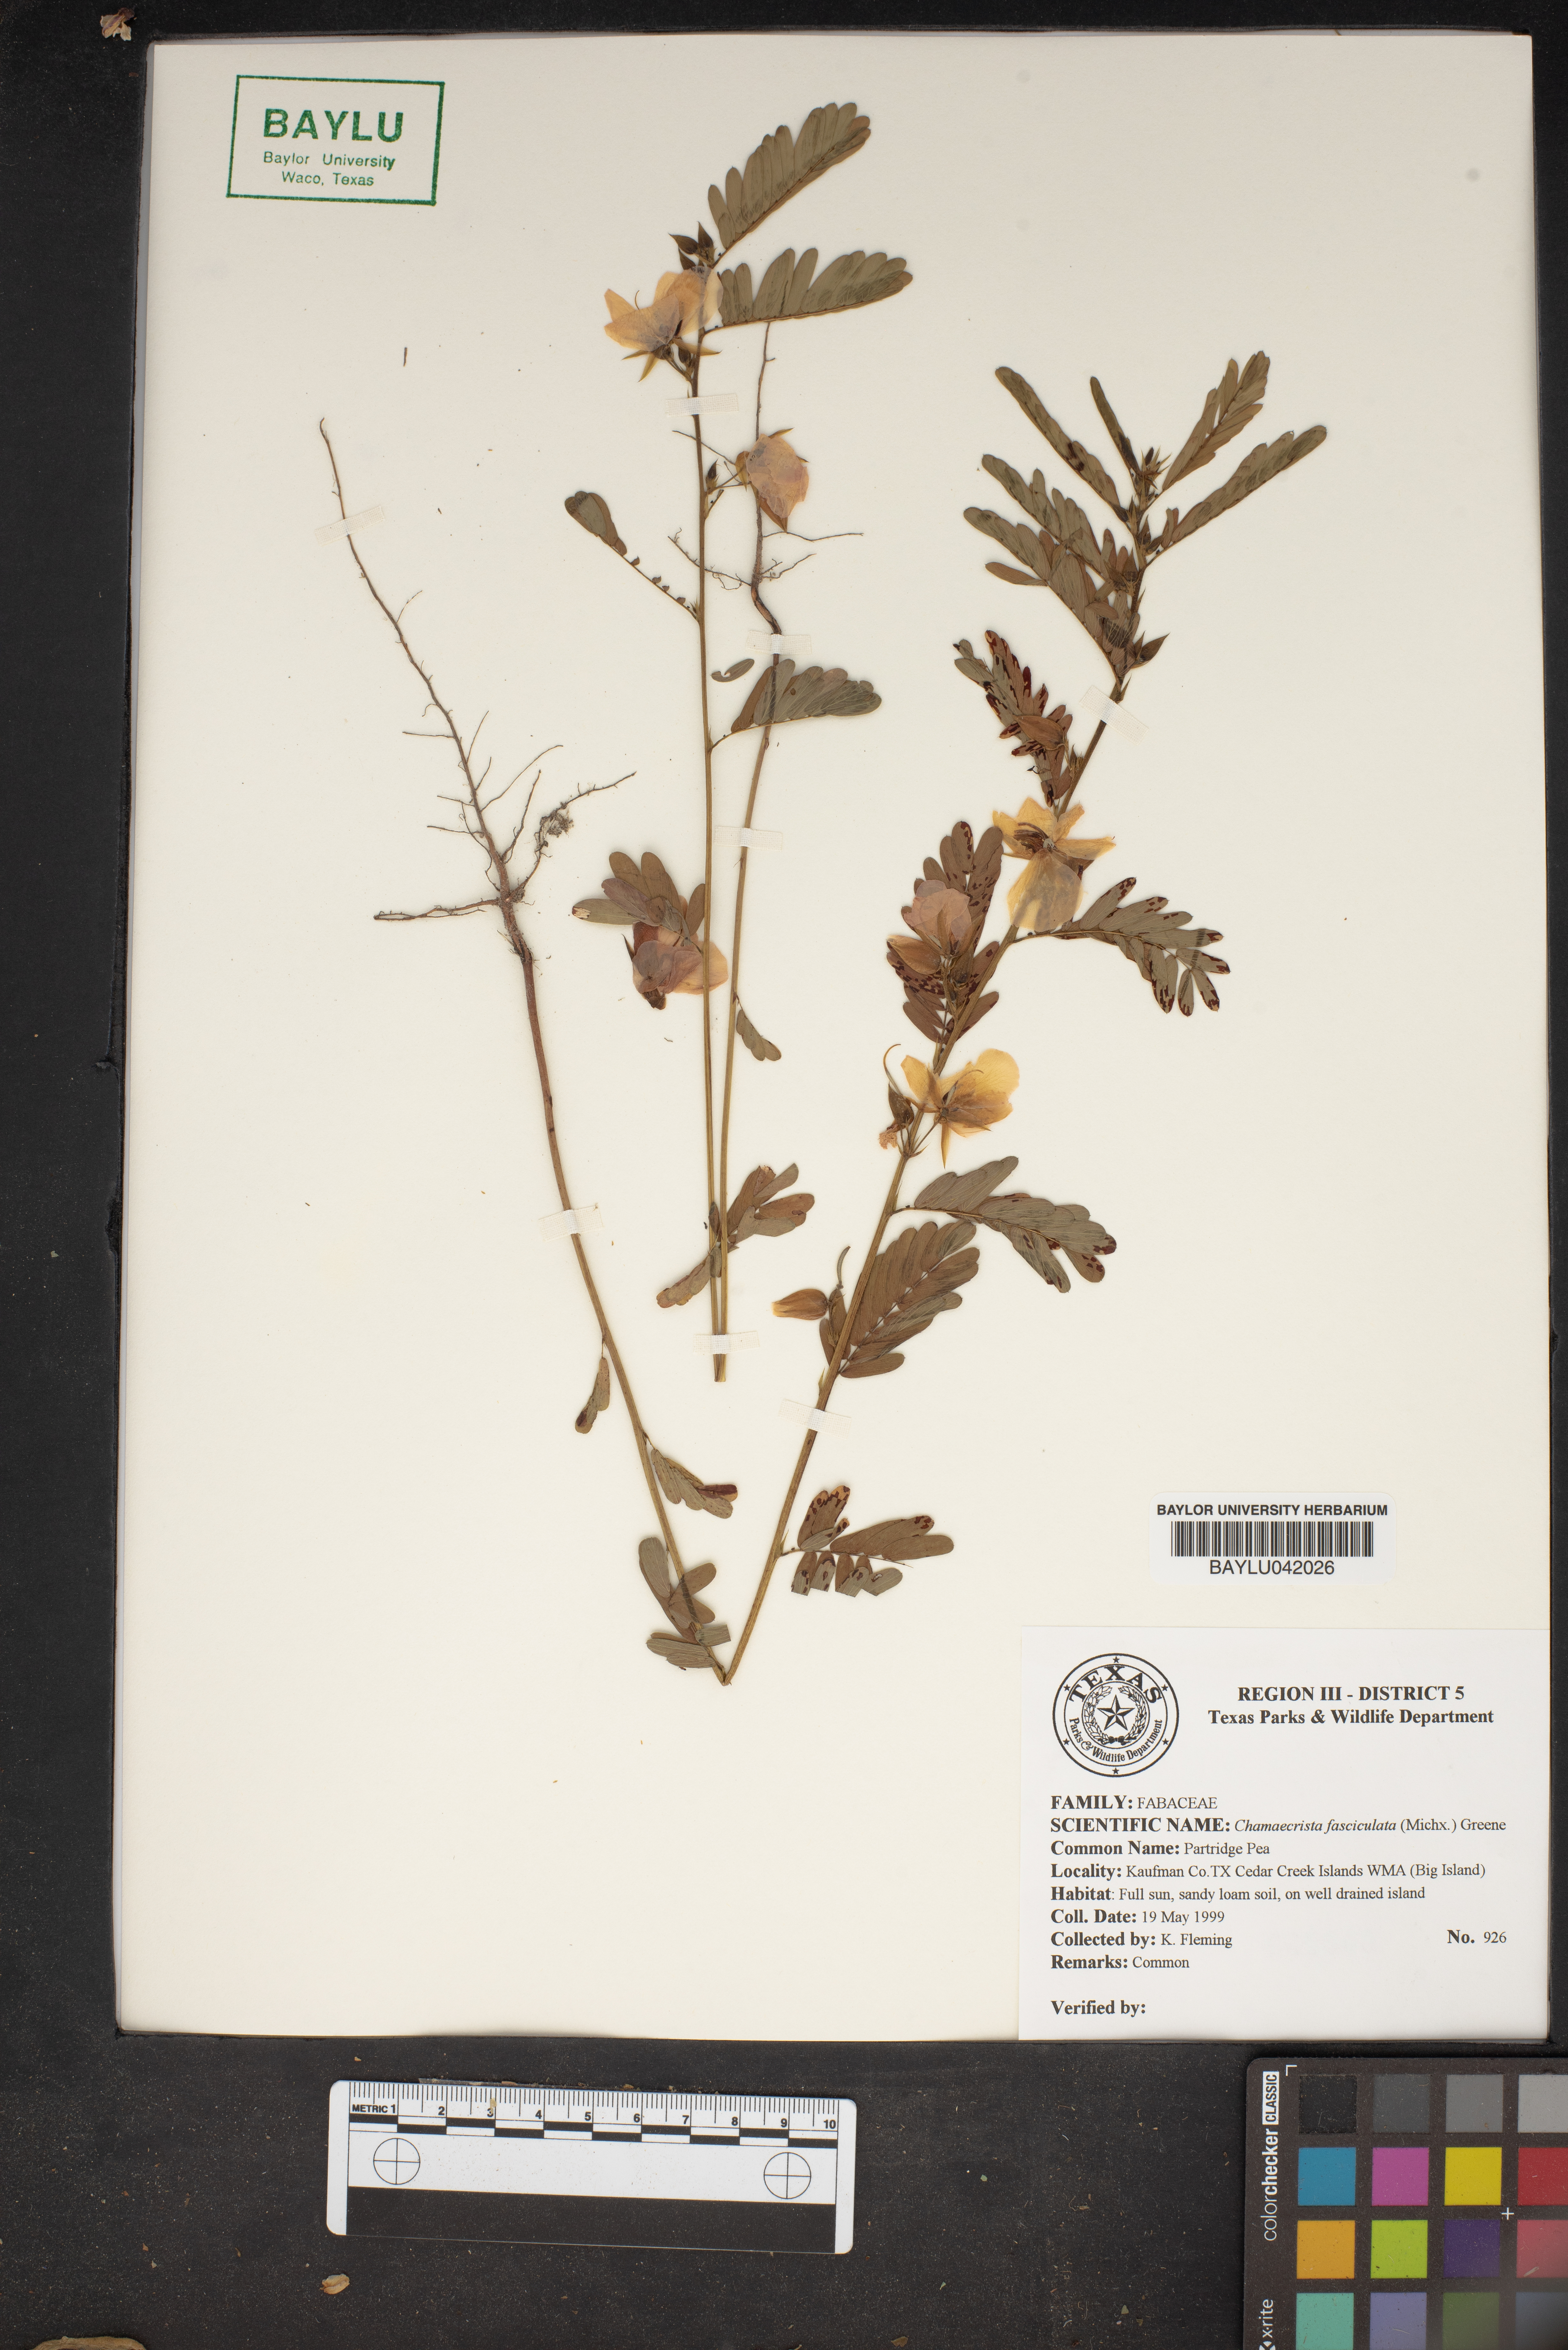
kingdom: Plantae
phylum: Tracheophyta
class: Magnoliopsida
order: Fabales
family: Fabaceae
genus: Chamaecrista
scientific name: Chamaecrista fasciculata
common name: Golden cassia
